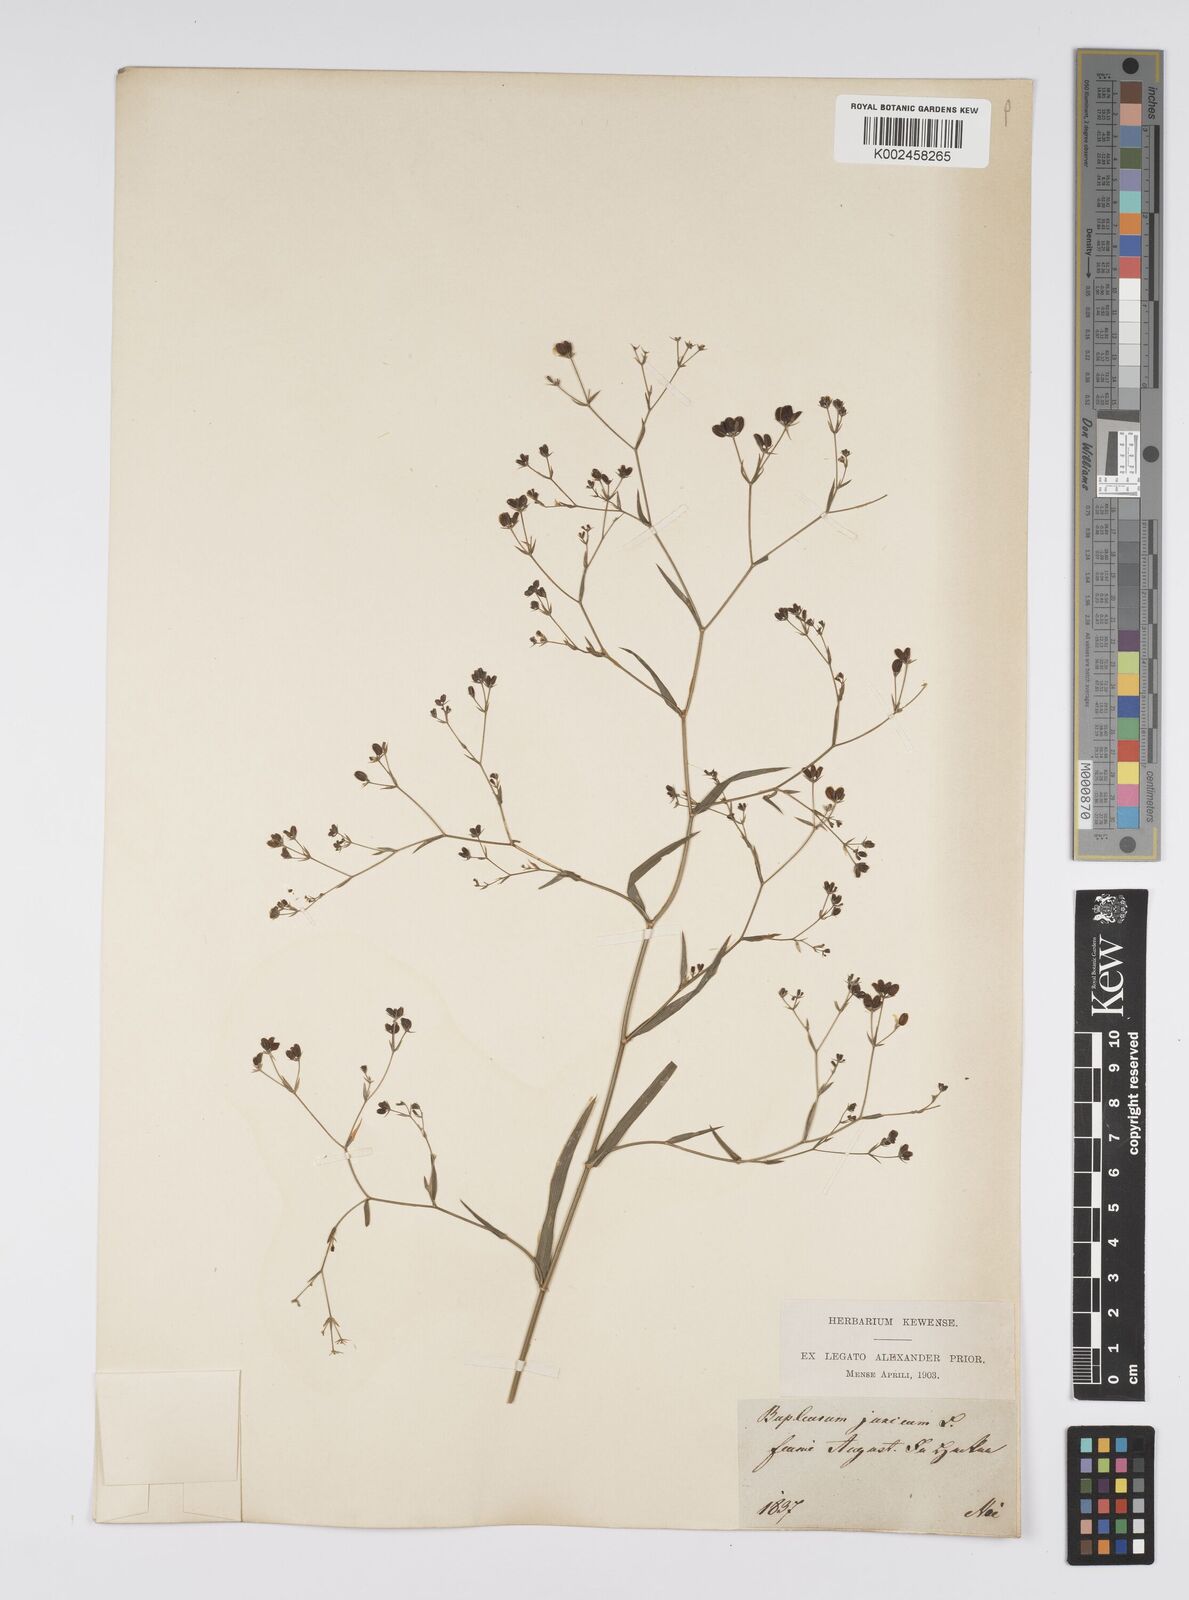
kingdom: Plantae
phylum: Tracheophyta
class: Magnoliopsida
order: Apiales
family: Apiaceae
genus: Bupleurum
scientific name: Bupleurum praealtum
